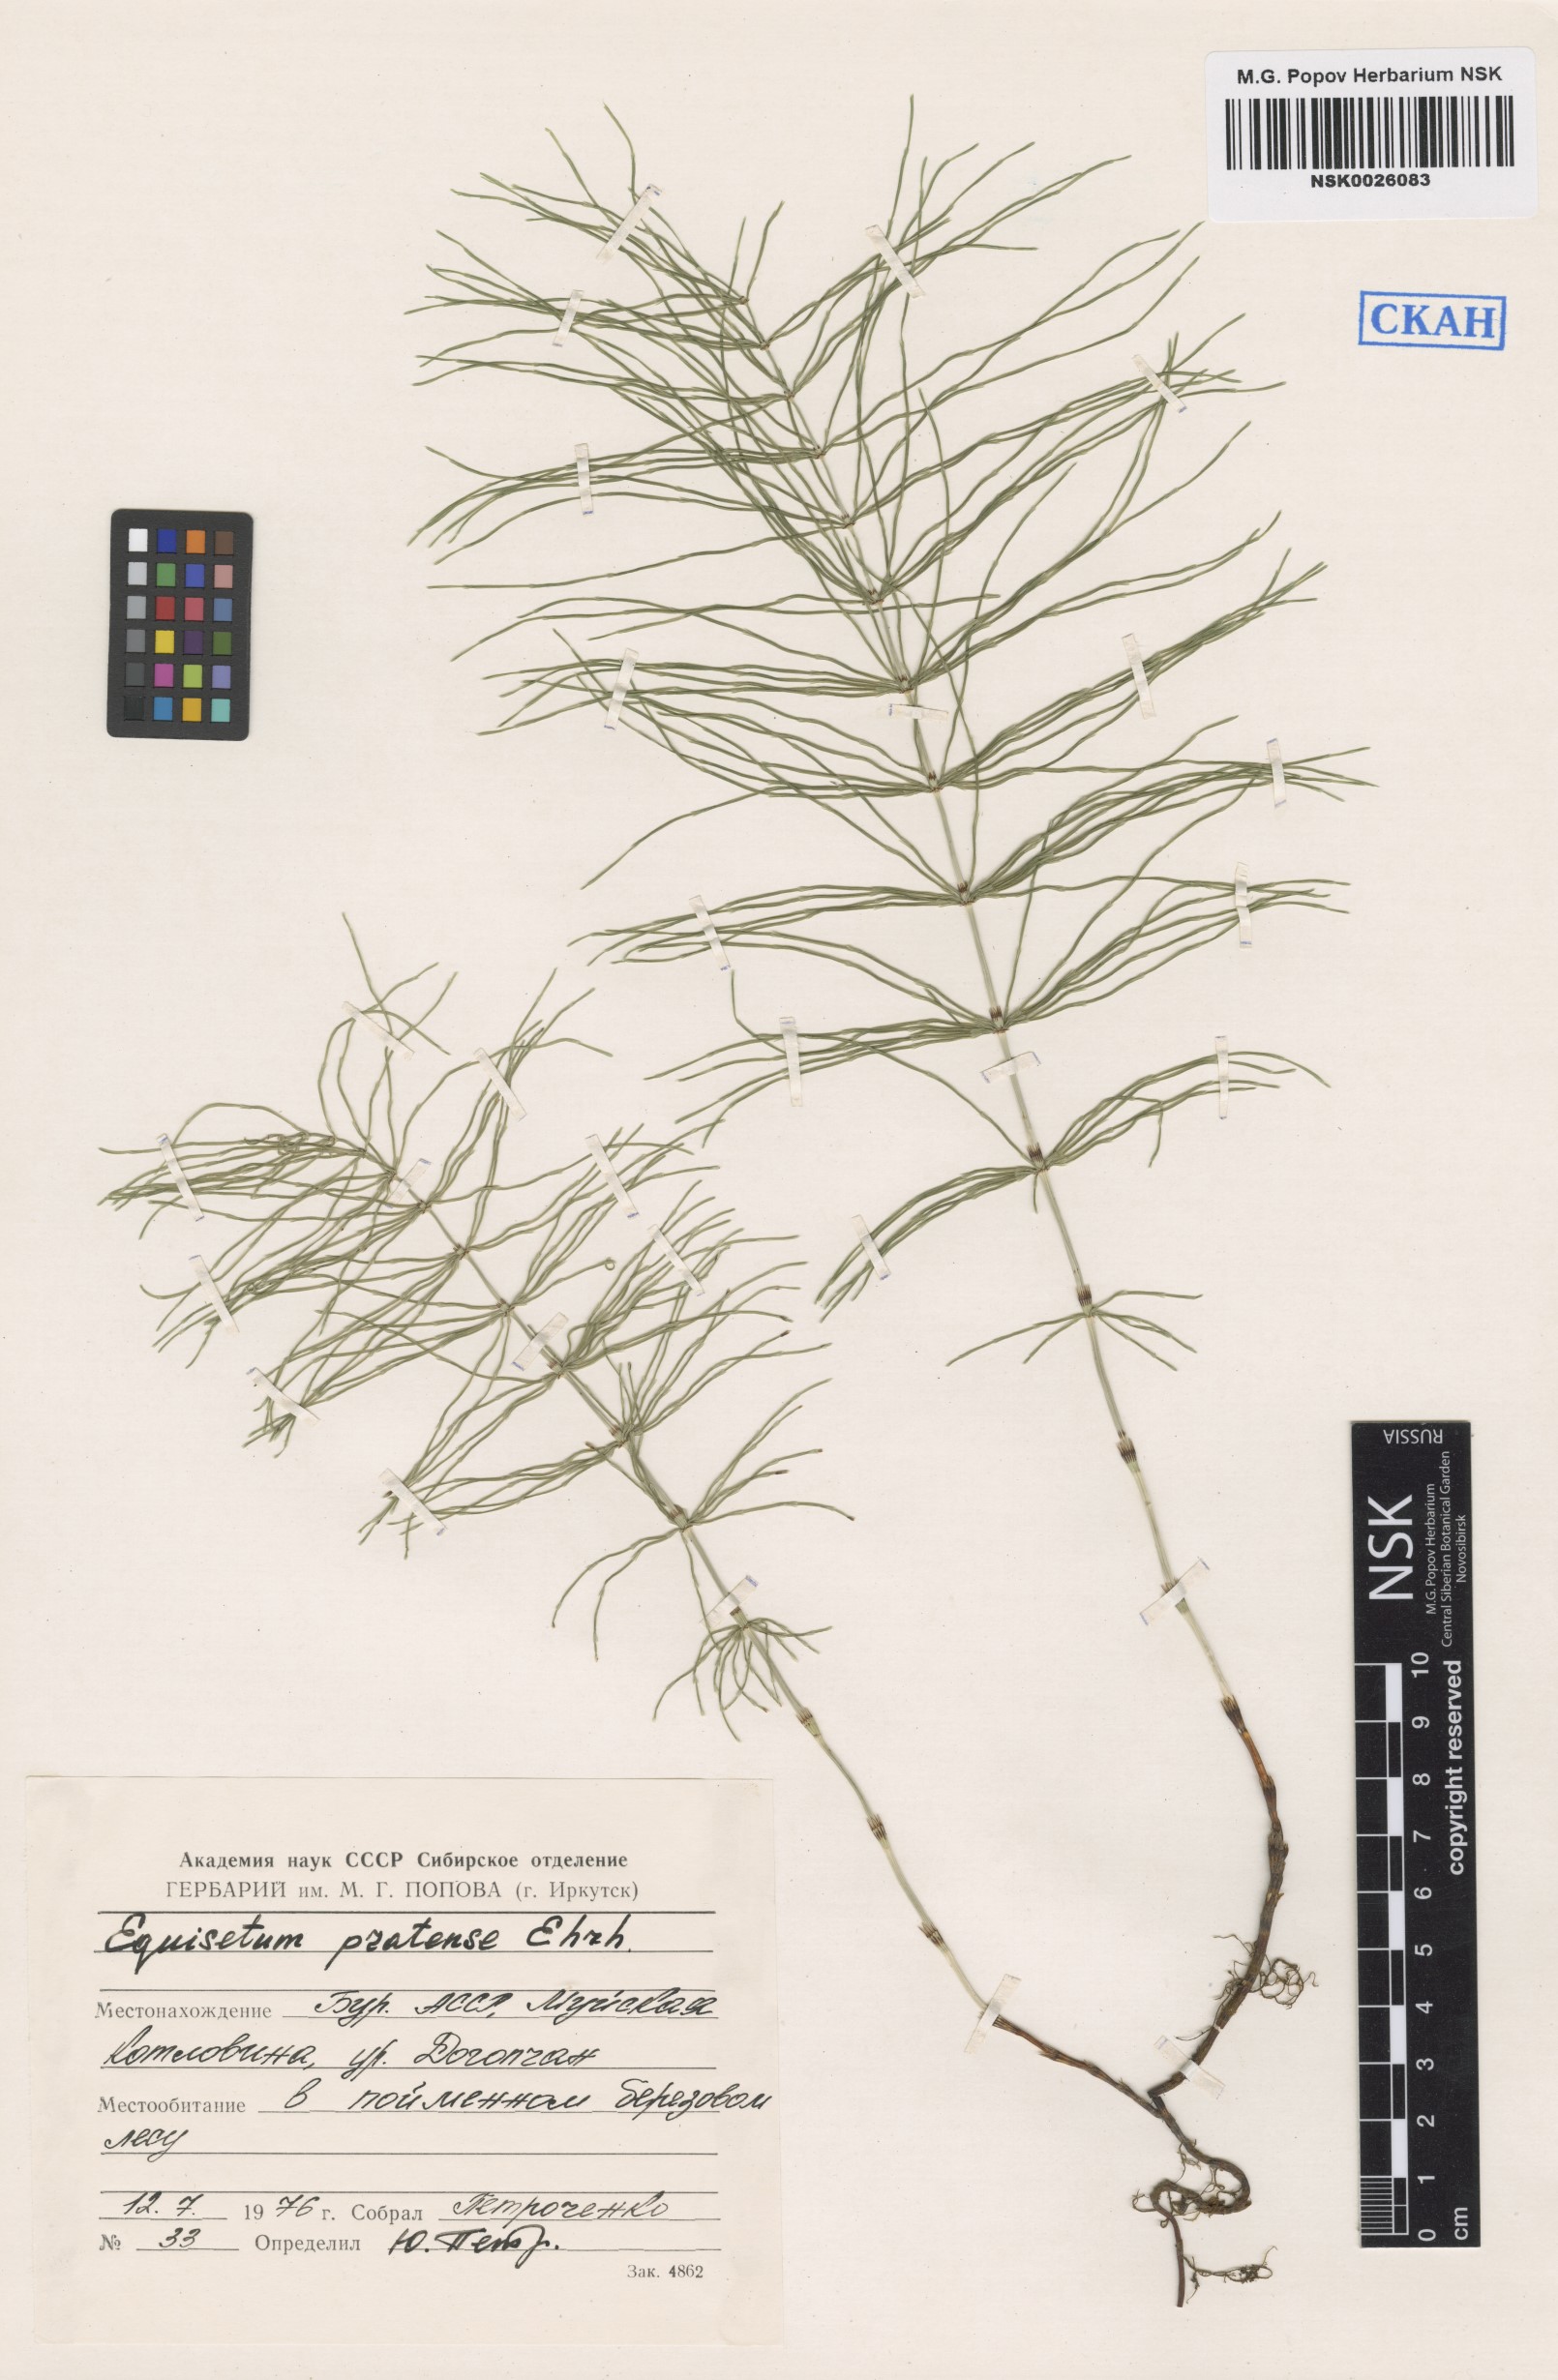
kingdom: Plantae
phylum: Tracheophyta
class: Polypodiopsida
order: Equisetales
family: Equisetaceae
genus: Equisetum
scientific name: Equisetum pratense
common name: Meadow horsetail
